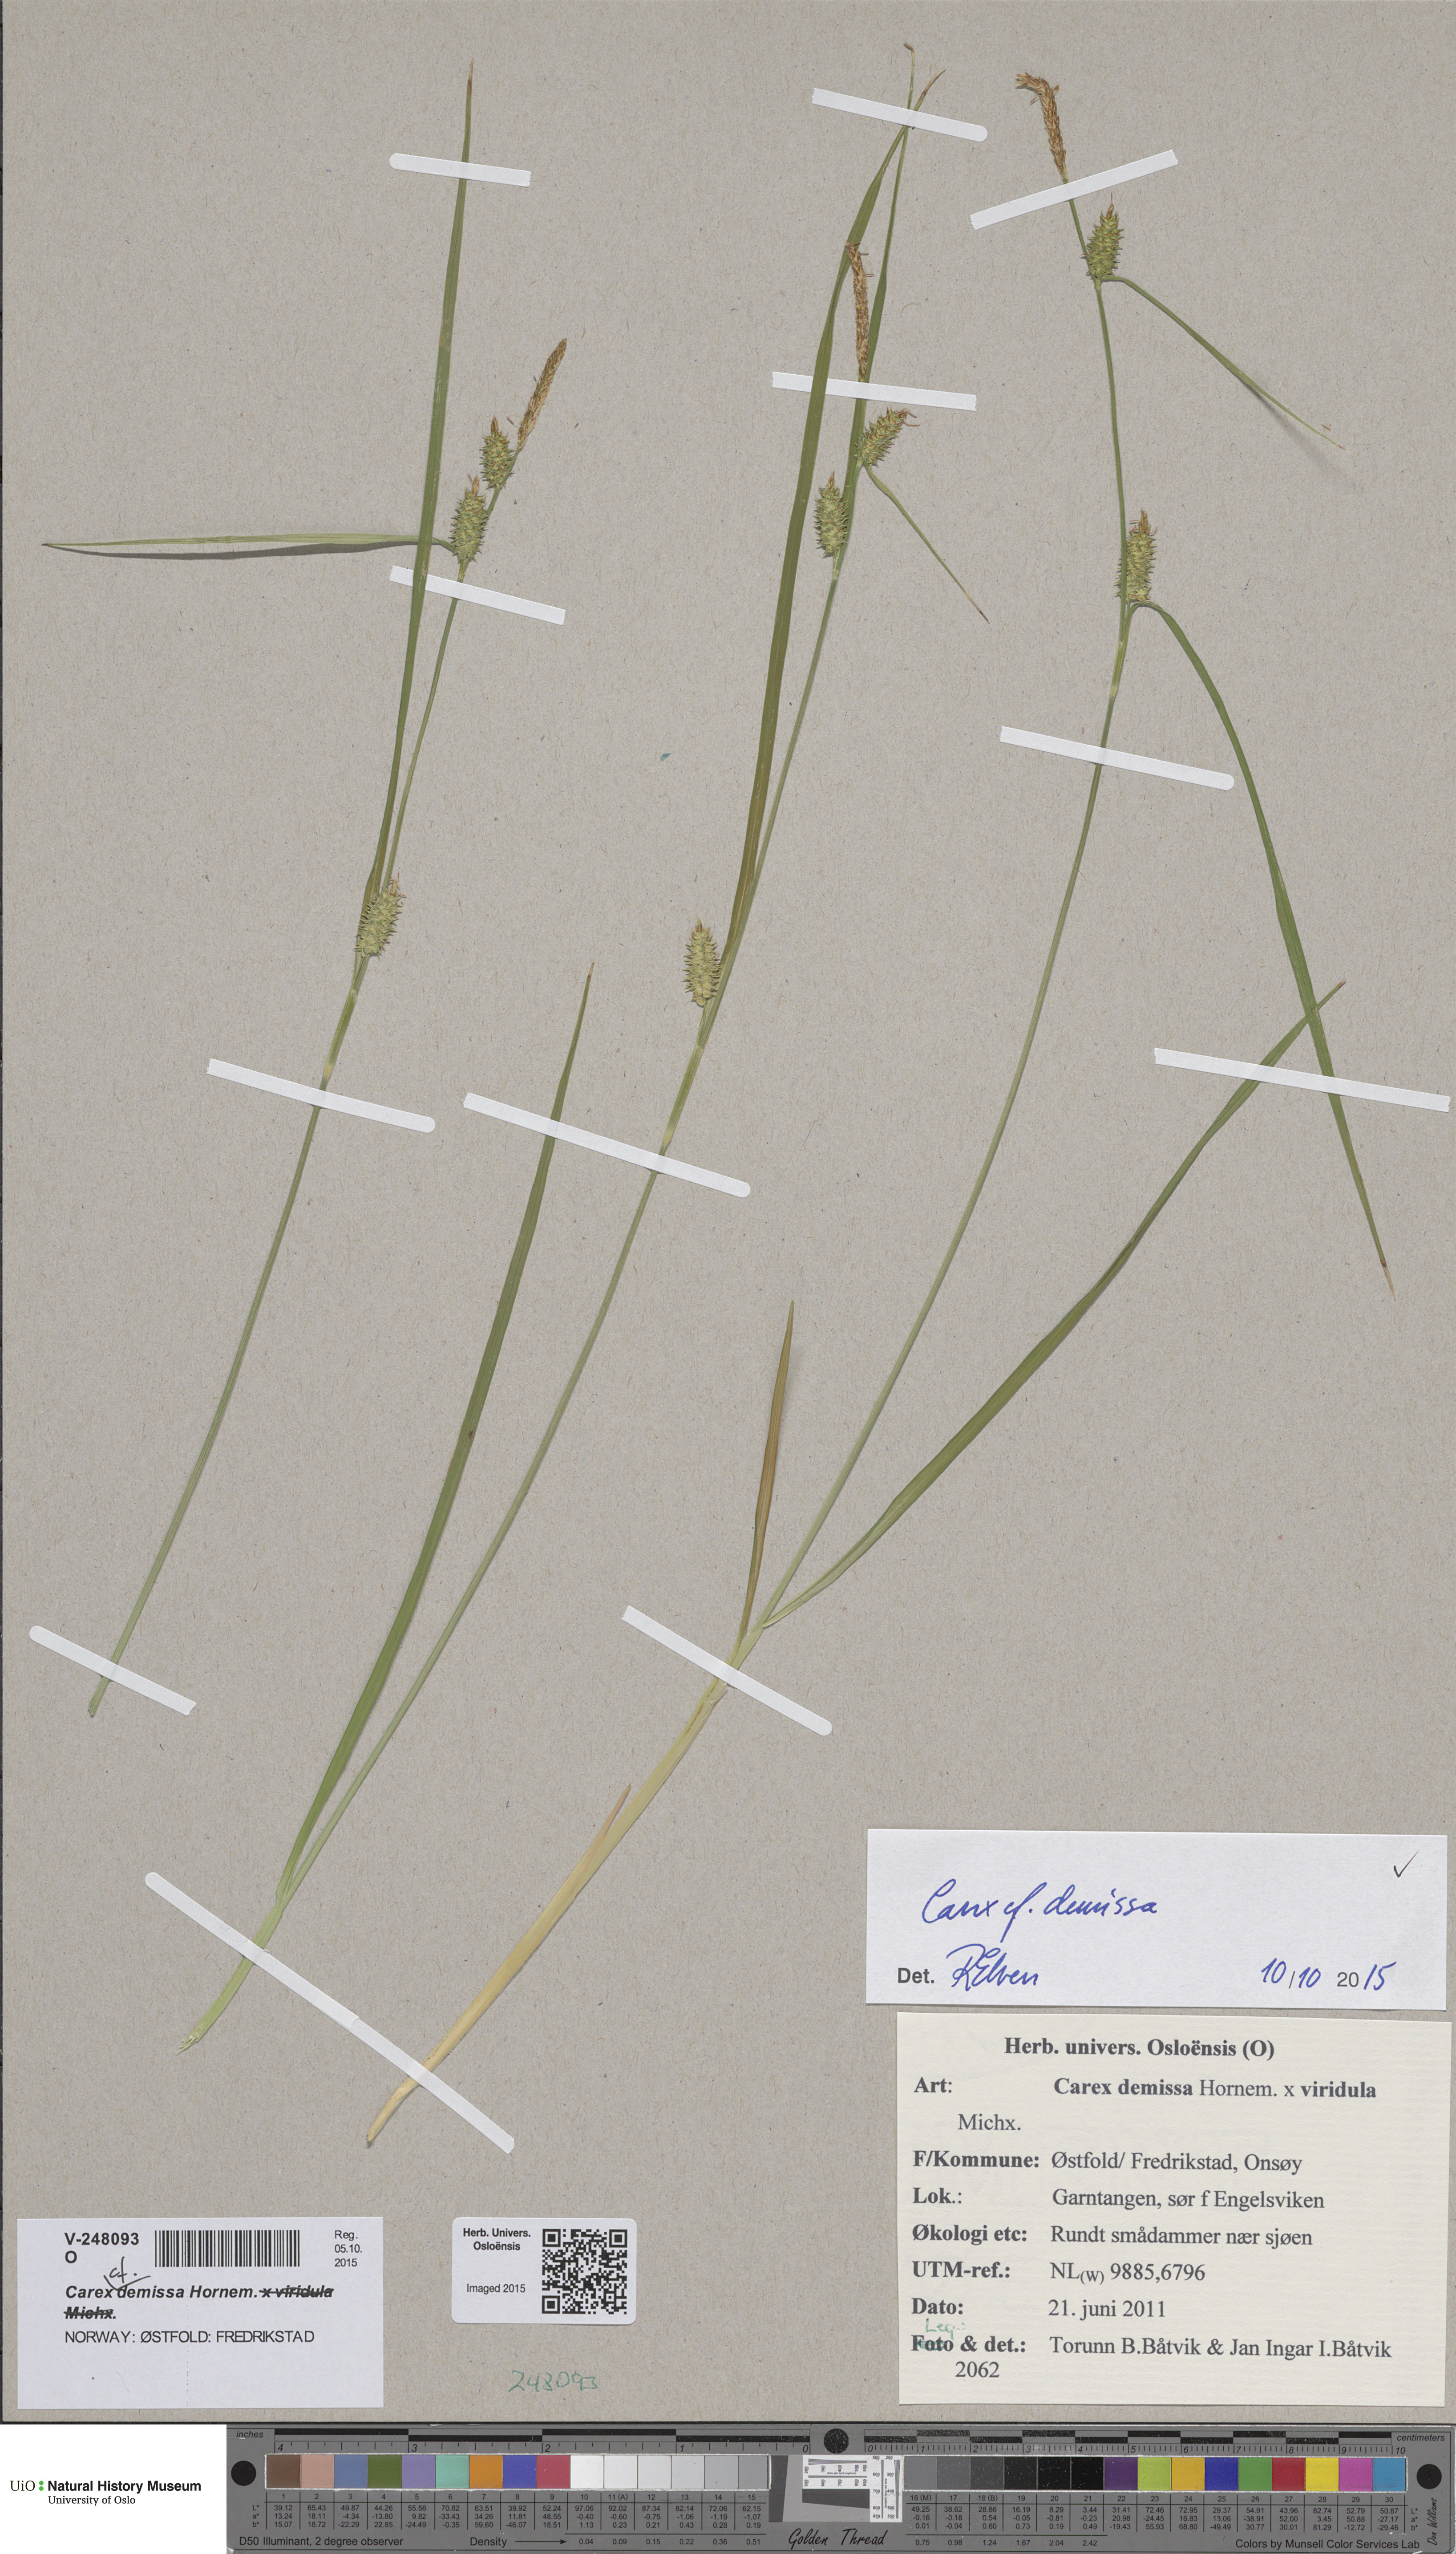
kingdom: Plantae
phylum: Tracheophyta
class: Liliopsida
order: Poales
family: Cyperaceae
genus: Carex
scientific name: Carex demissa
